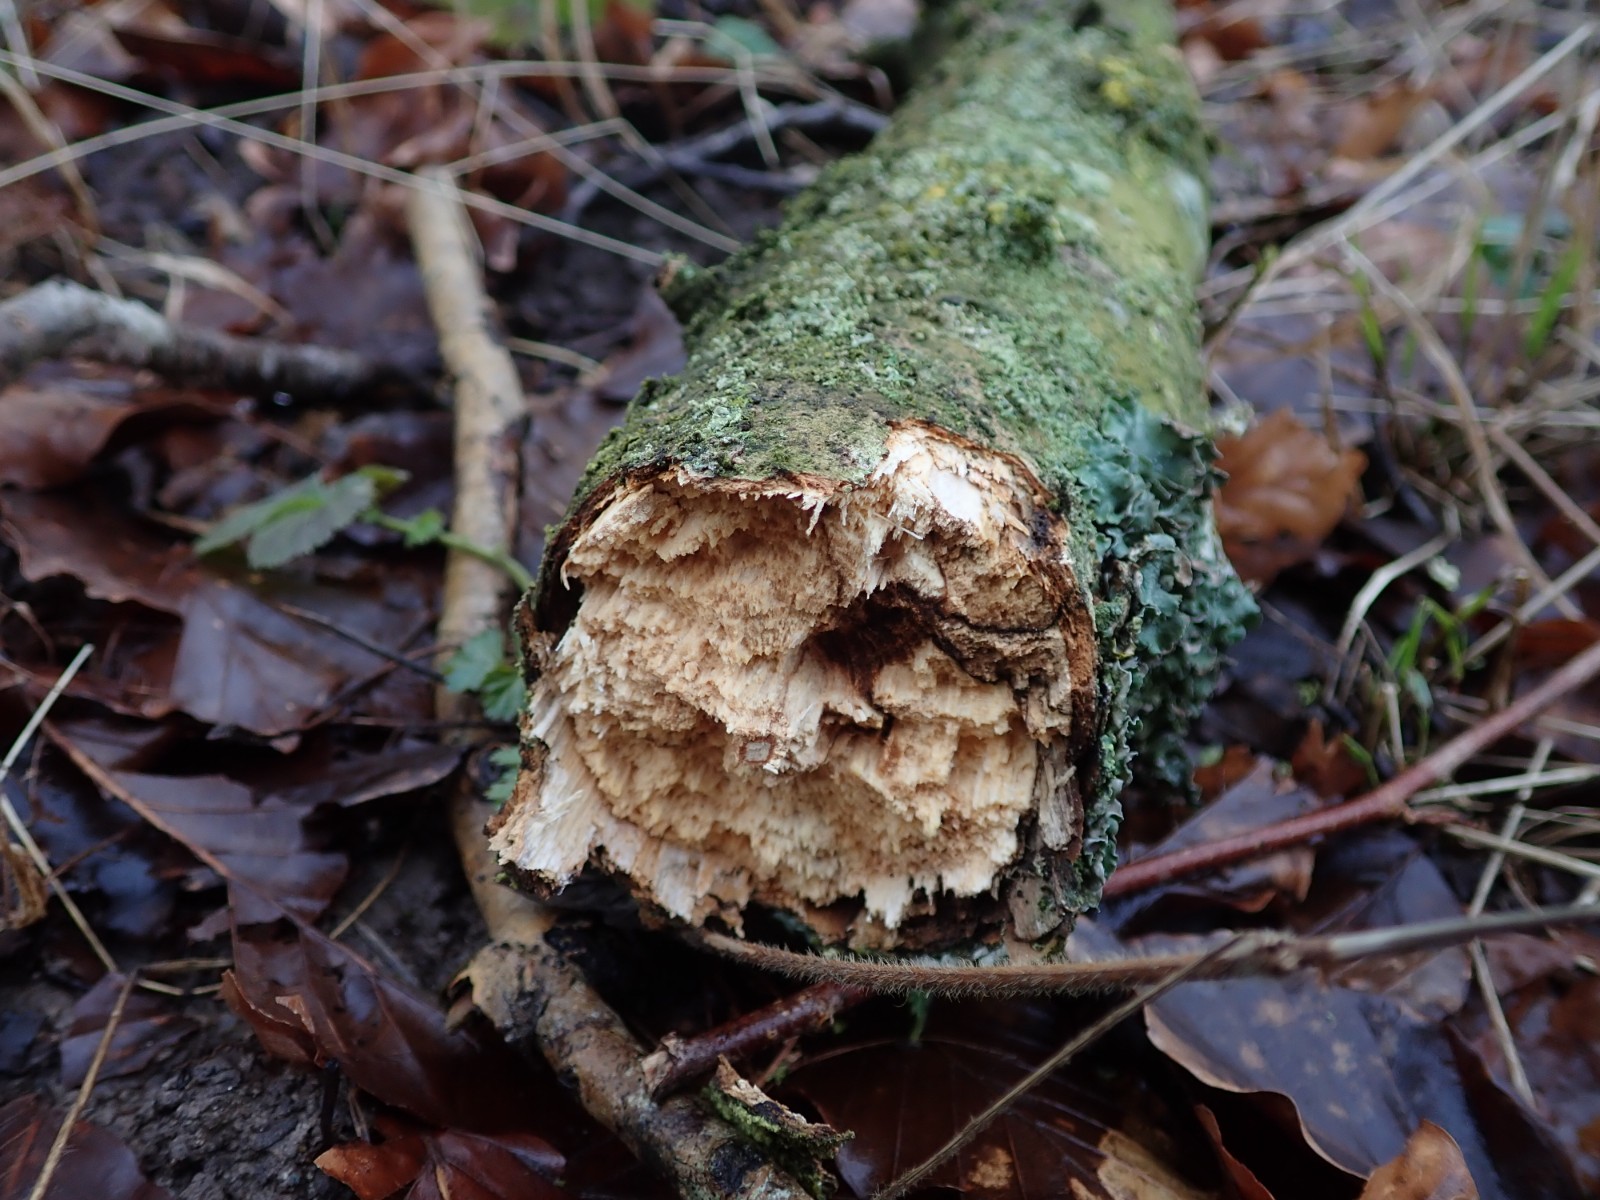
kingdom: Fungi
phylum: Basidiomycota
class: Agaricomycetes
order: Russulales
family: Peniophoraceae
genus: Peniophora
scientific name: Peniophora limitata
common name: mørkrandet voksskind
